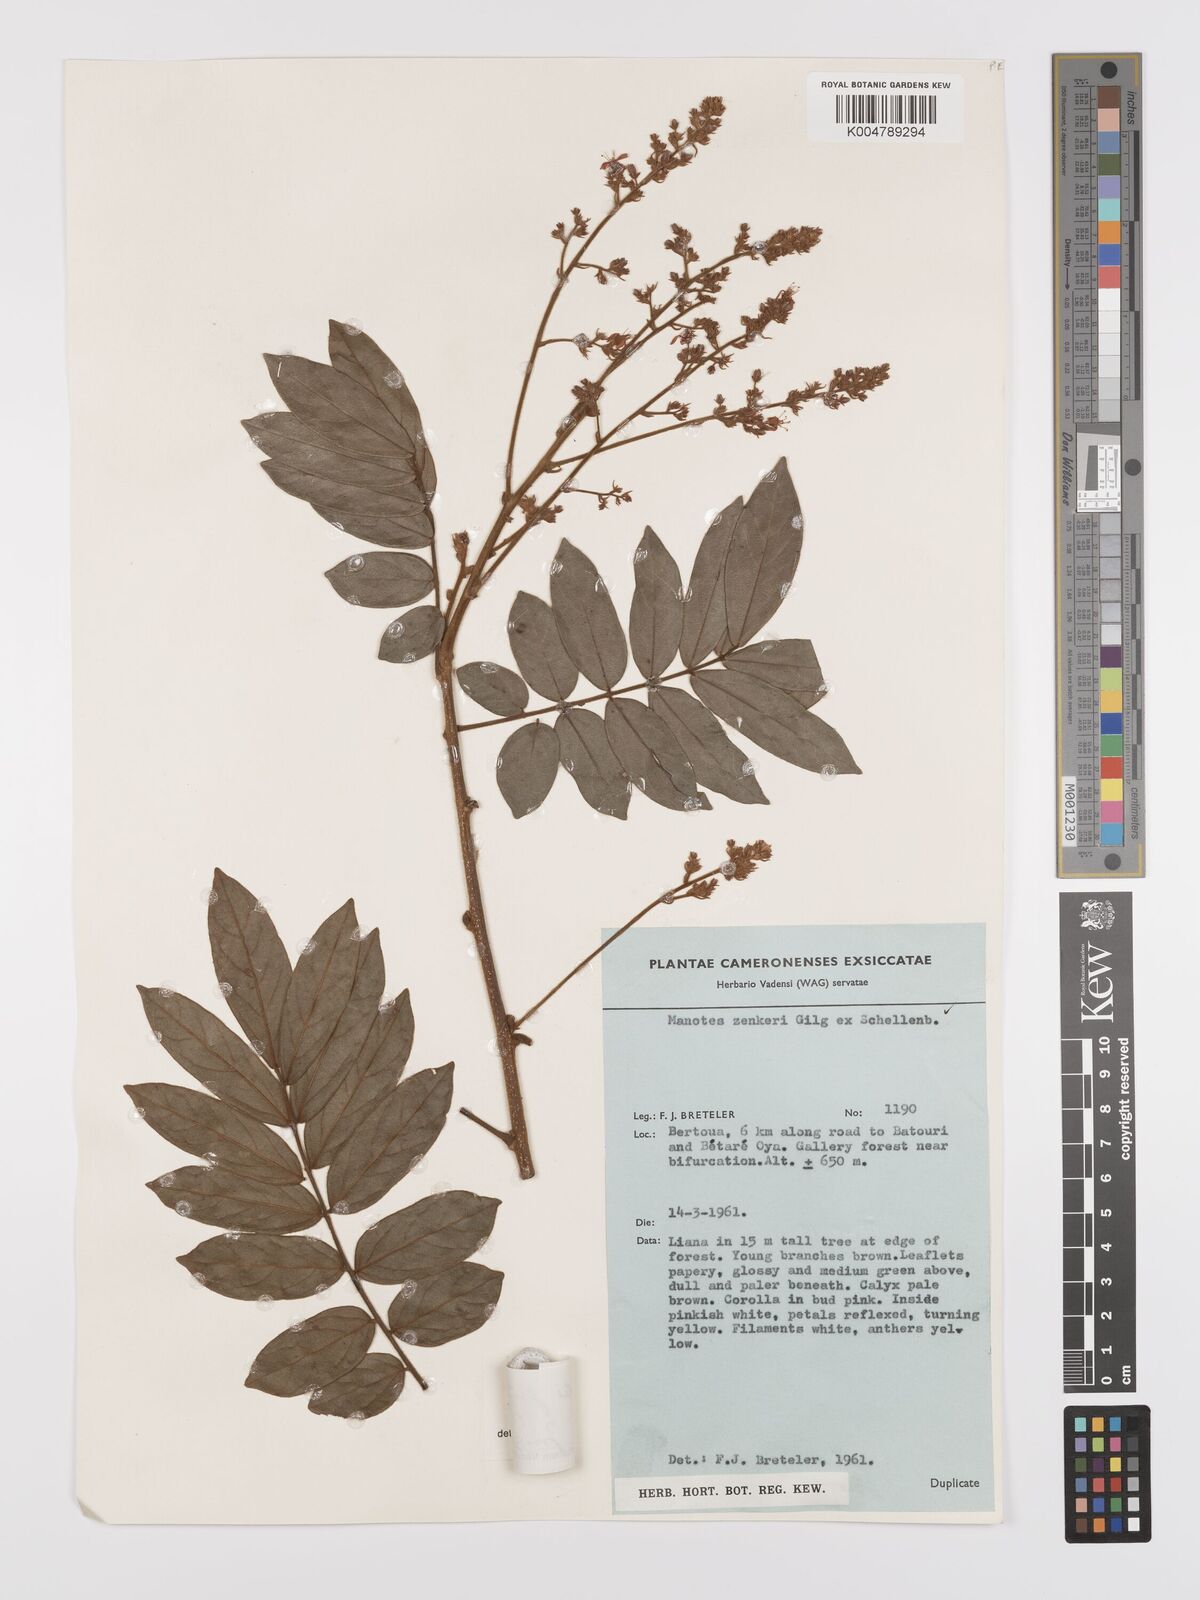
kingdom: Plantae
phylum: Tracheophyta
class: Magnoliopsida
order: Oxalidales
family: Connaraceae
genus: Manotes
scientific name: Manotes griffoniana
